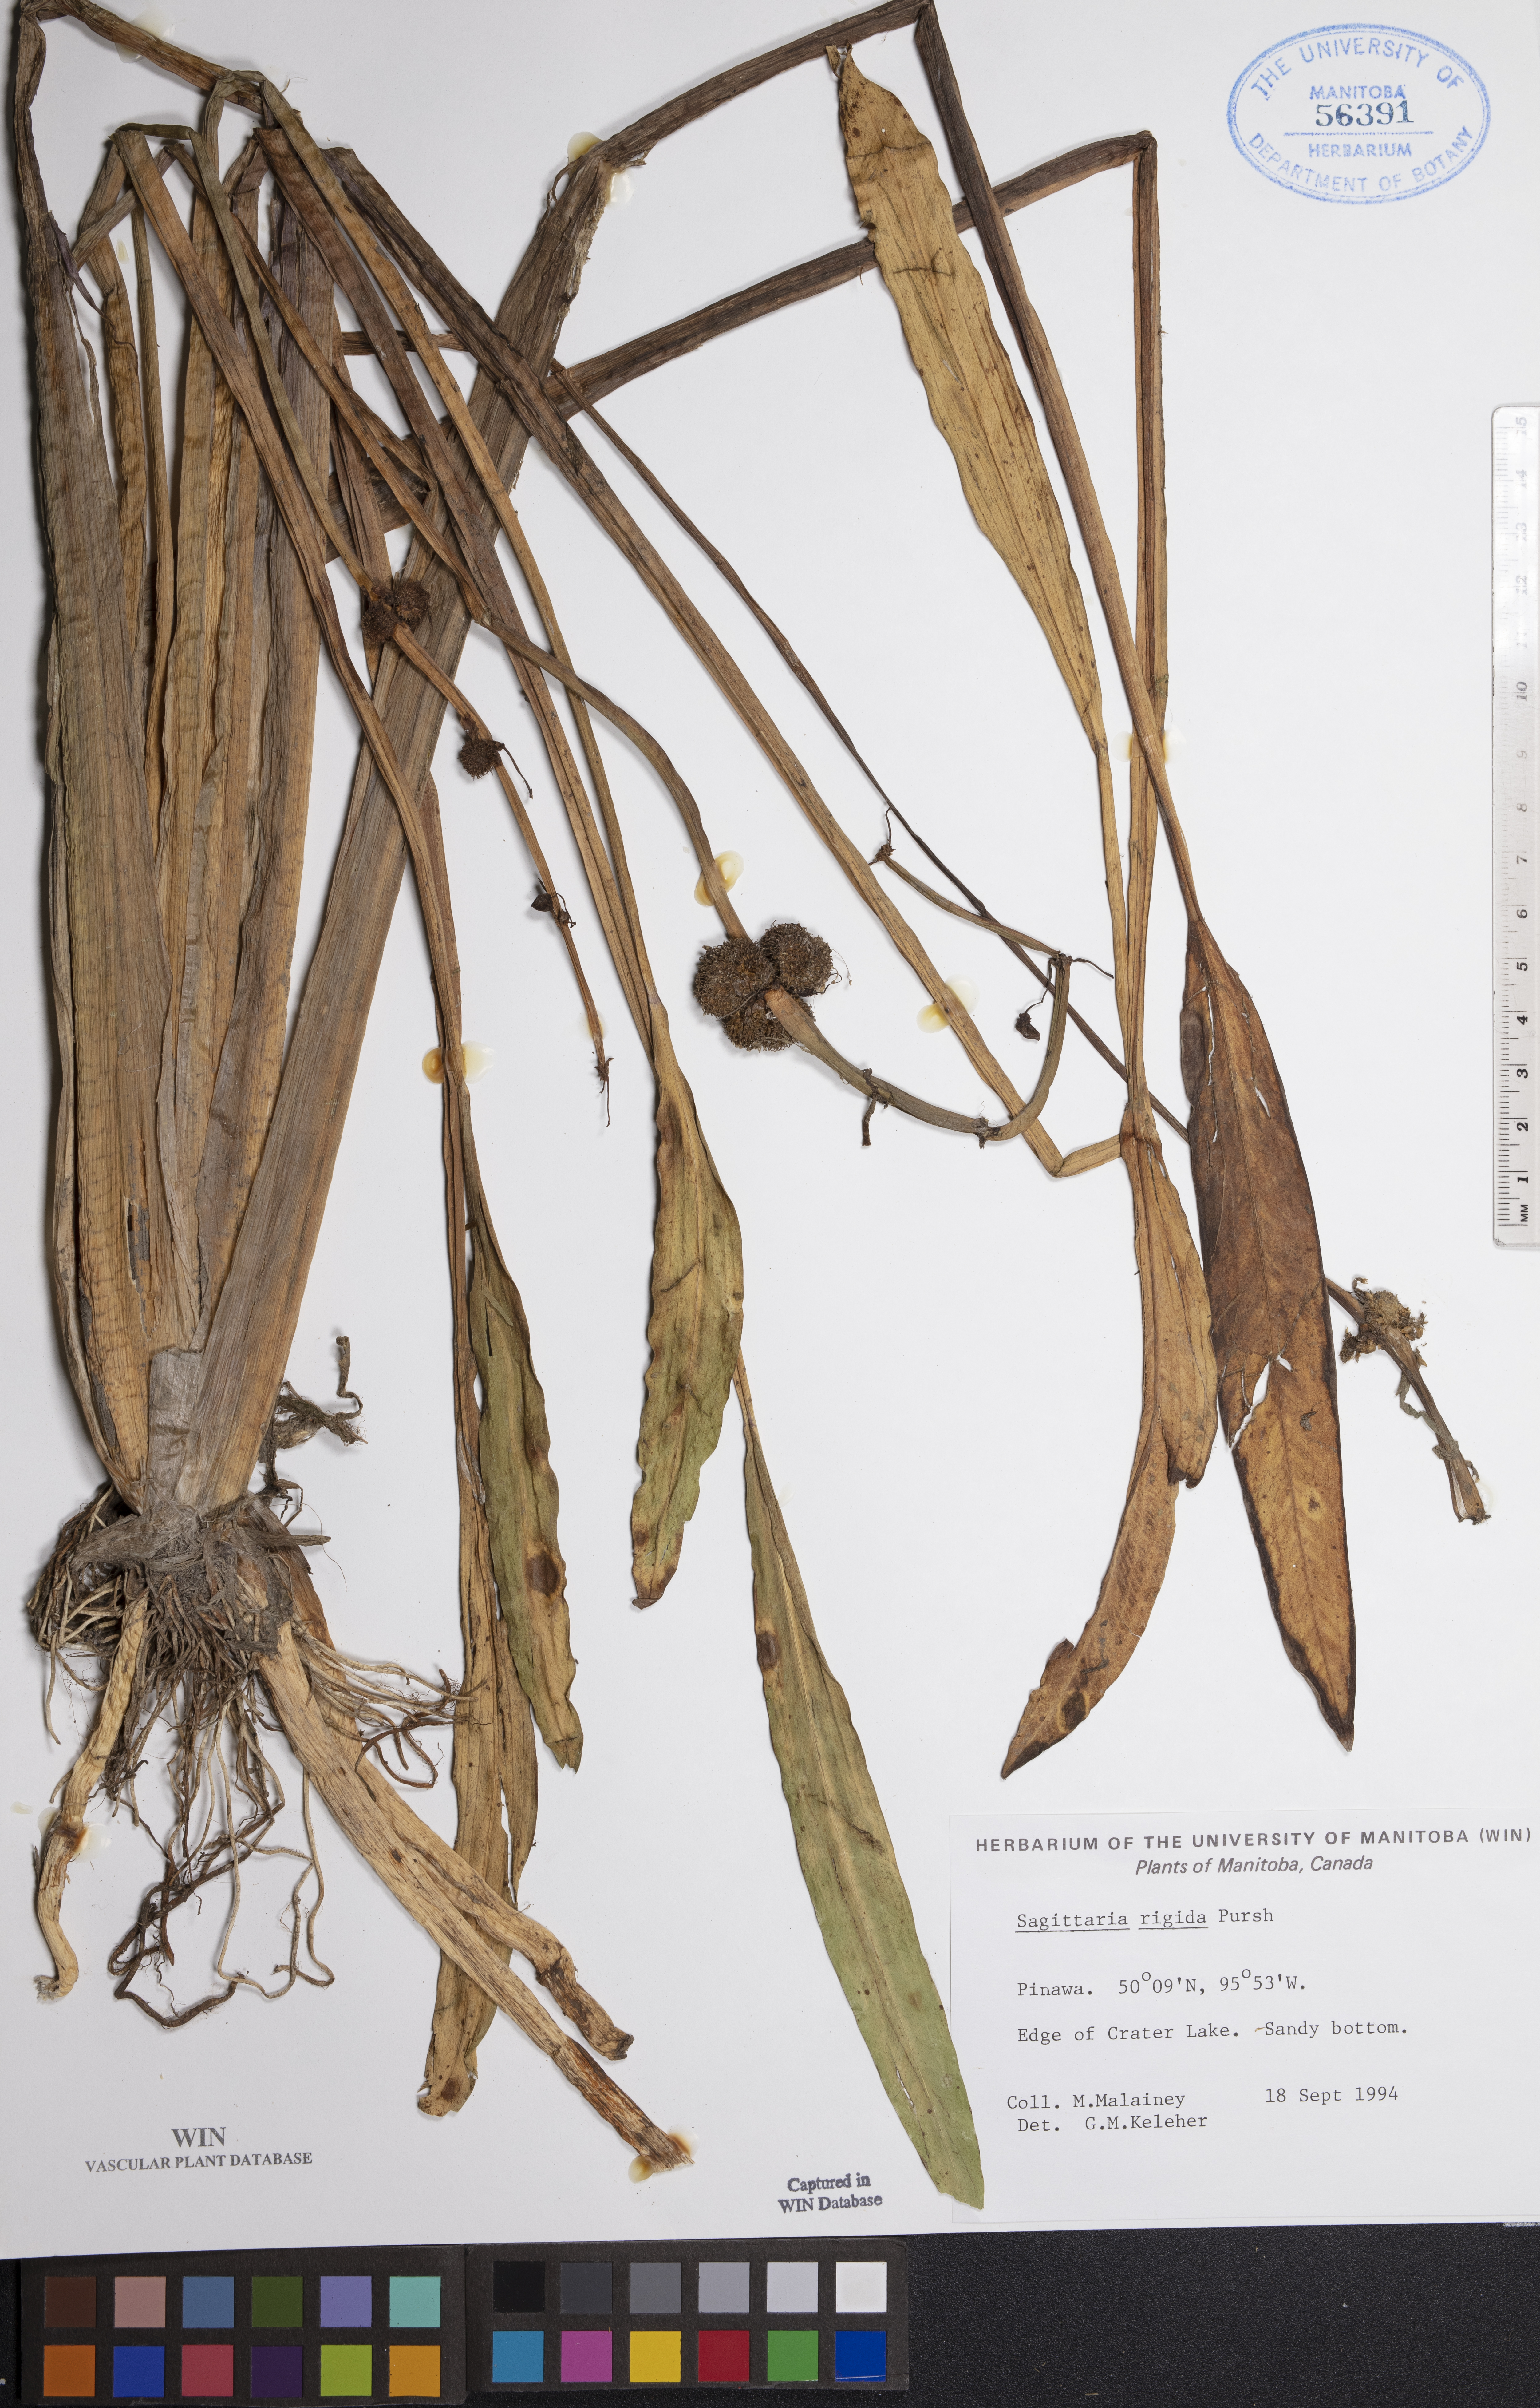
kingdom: Plantae
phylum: Tracheophyta
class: Liliopsida
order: Alismatales
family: Alismataceae
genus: Sagittaria
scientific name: Sagittaria rigida
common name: Canadian arrowhead
